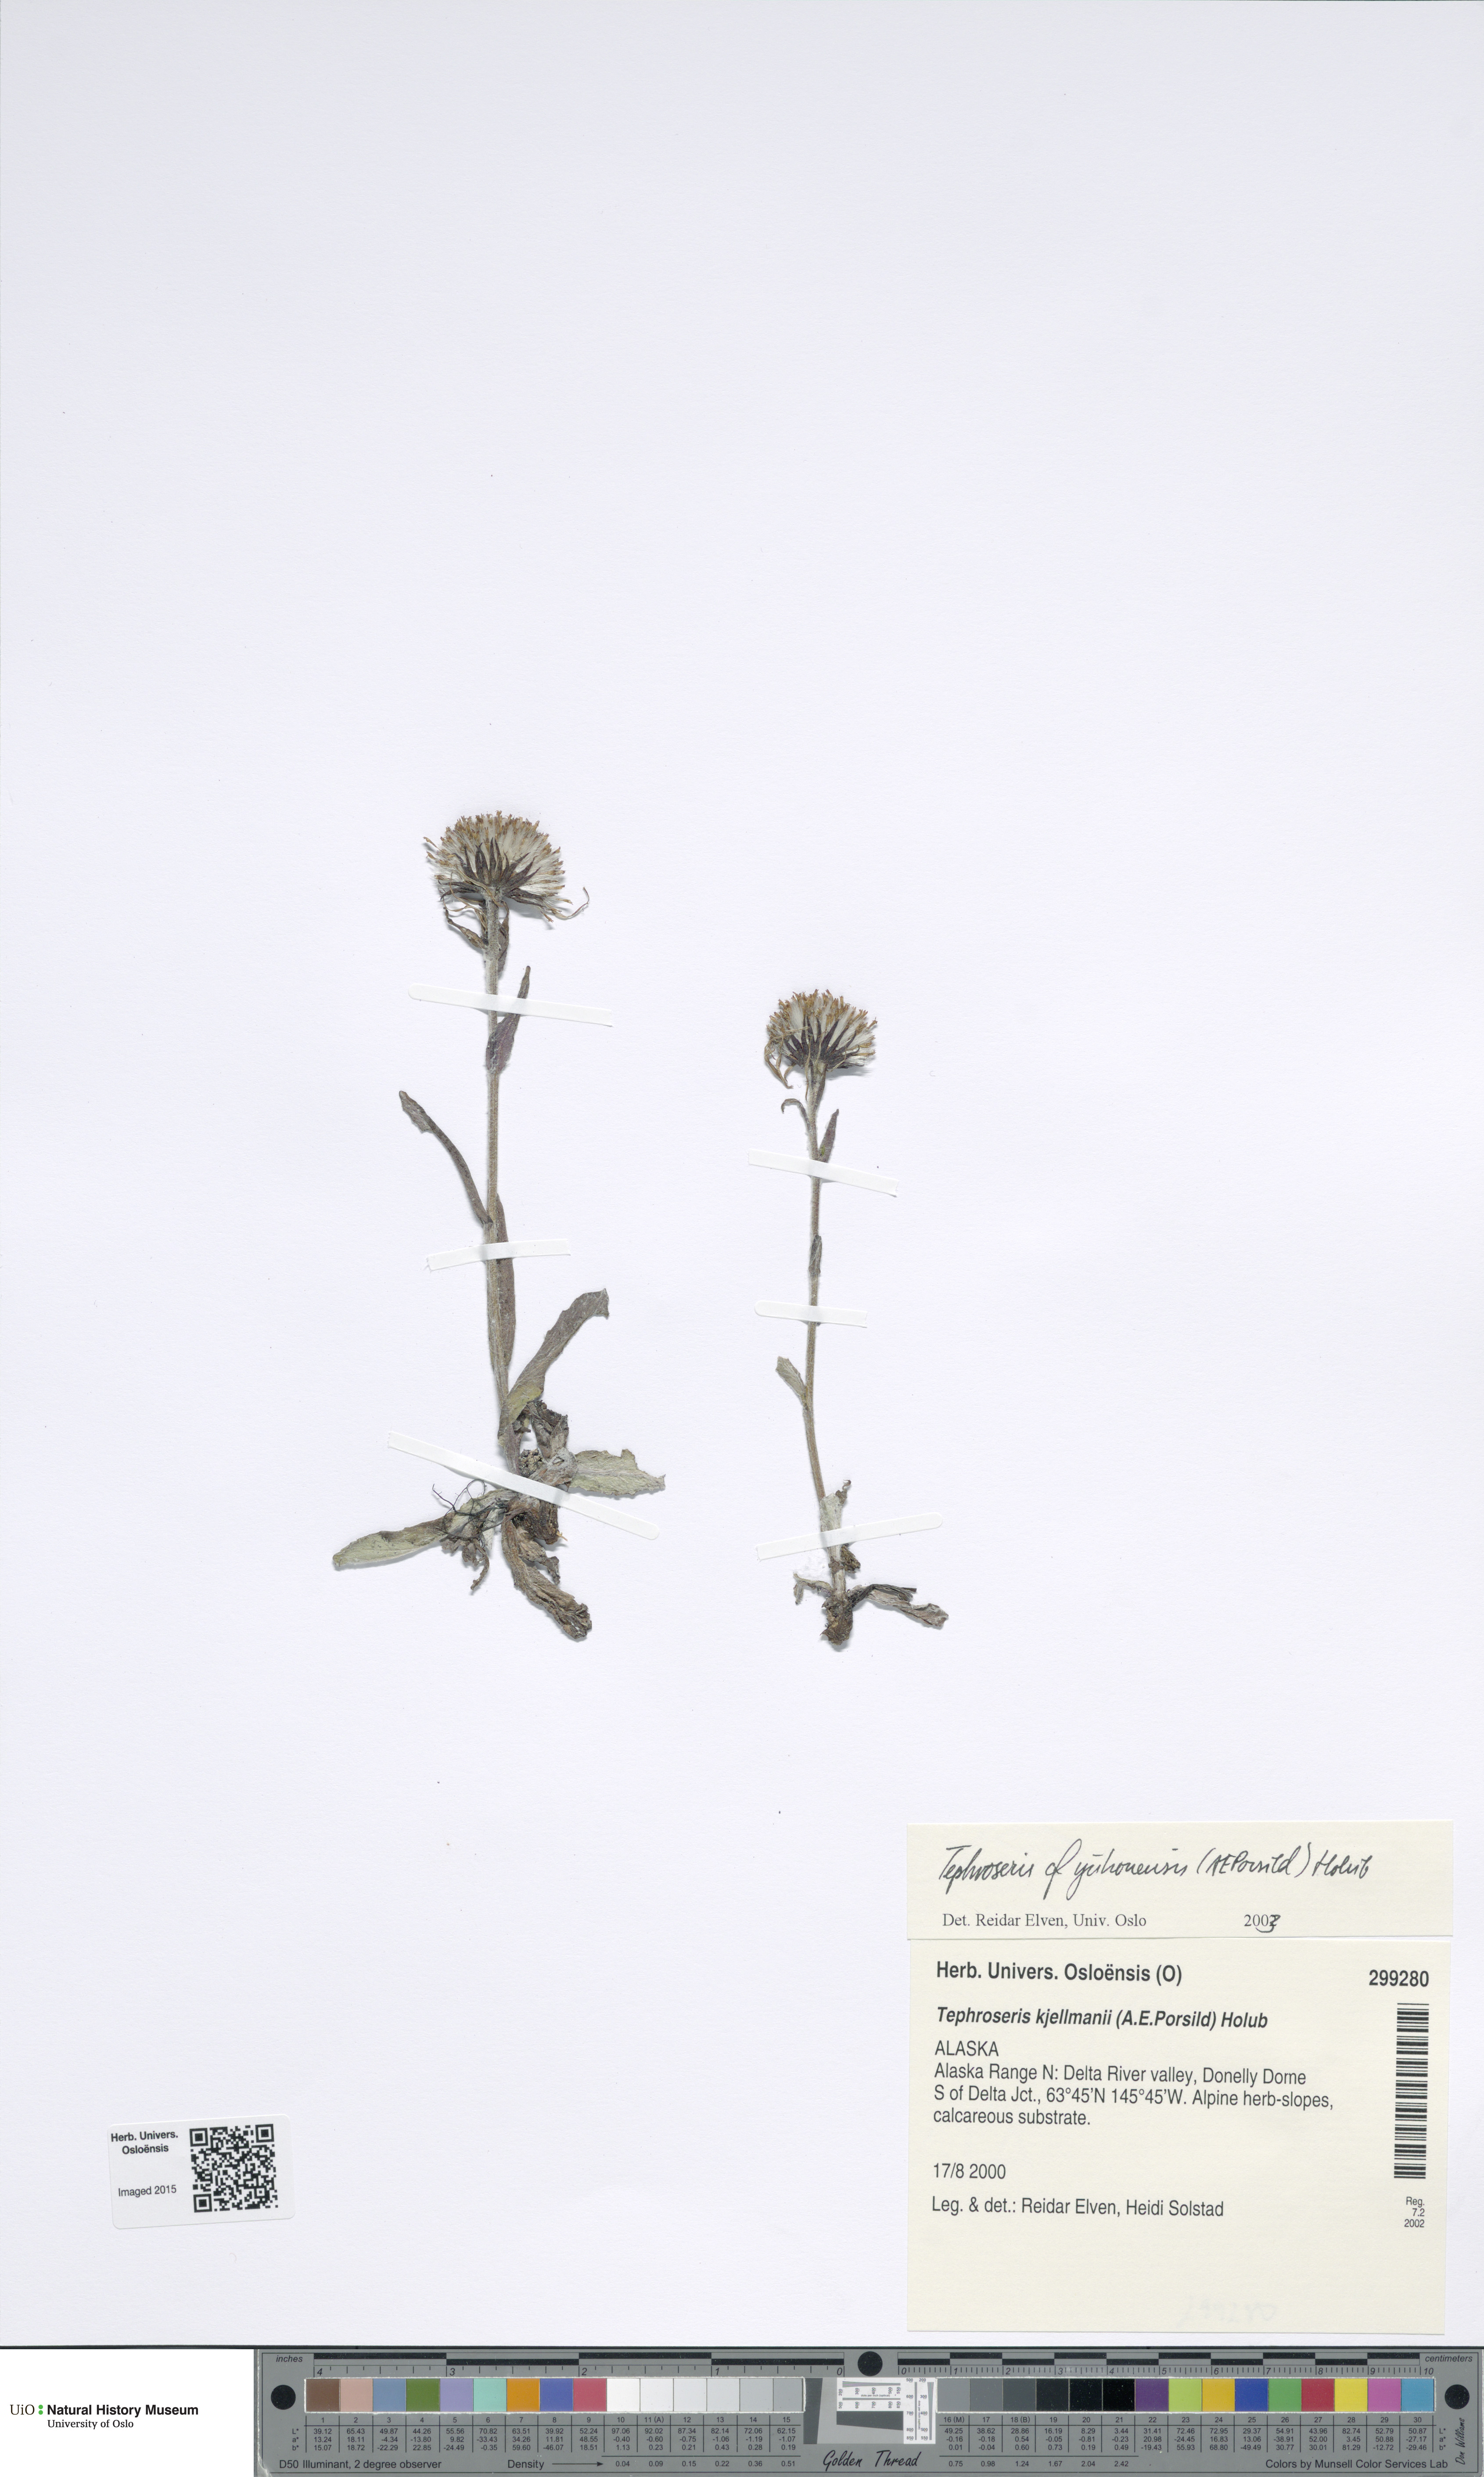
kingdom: Plantae
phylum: Tracheophyta
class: Magnoliopsida
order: Asterales
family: Asteraceae
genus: Tephroseris
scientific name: Tephroseris lindstroemii
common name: Lindström's groundsel
